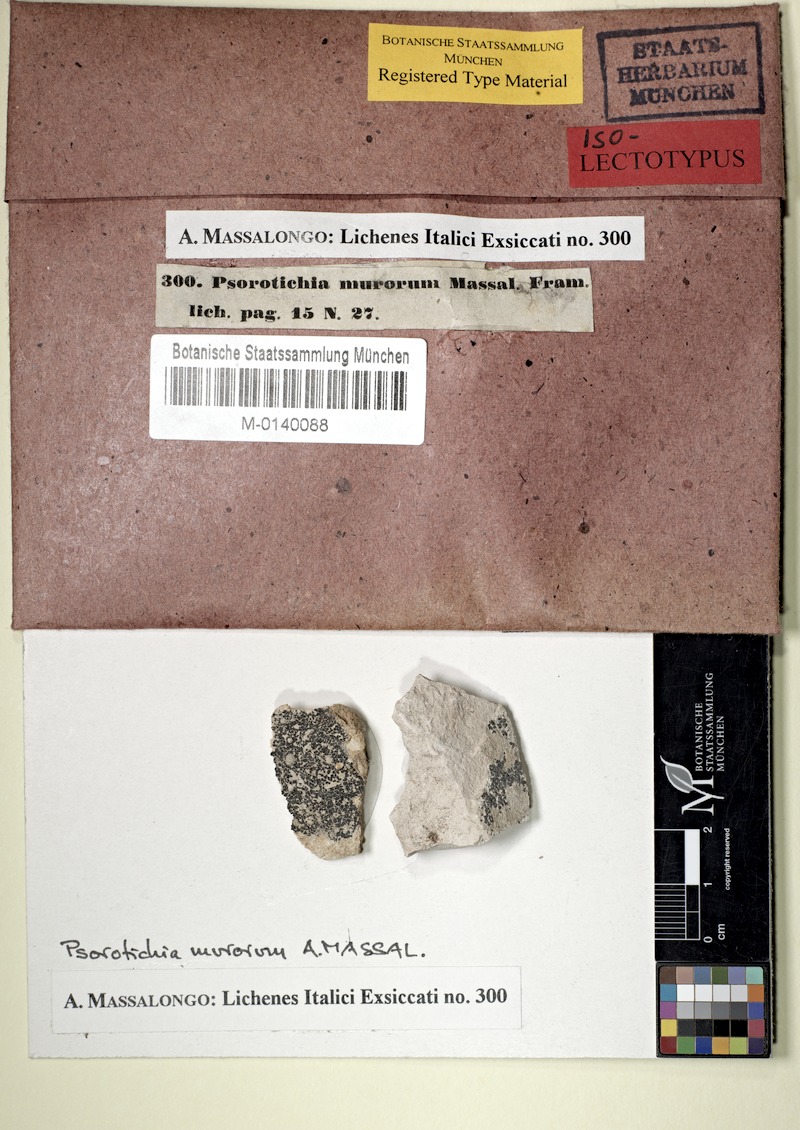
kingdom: Fungi
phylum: Ascomycota
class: Lichinomycetes
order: Lichinales
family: Lichinaceae
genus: Psorotichia
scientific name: Psorotichia murorum
